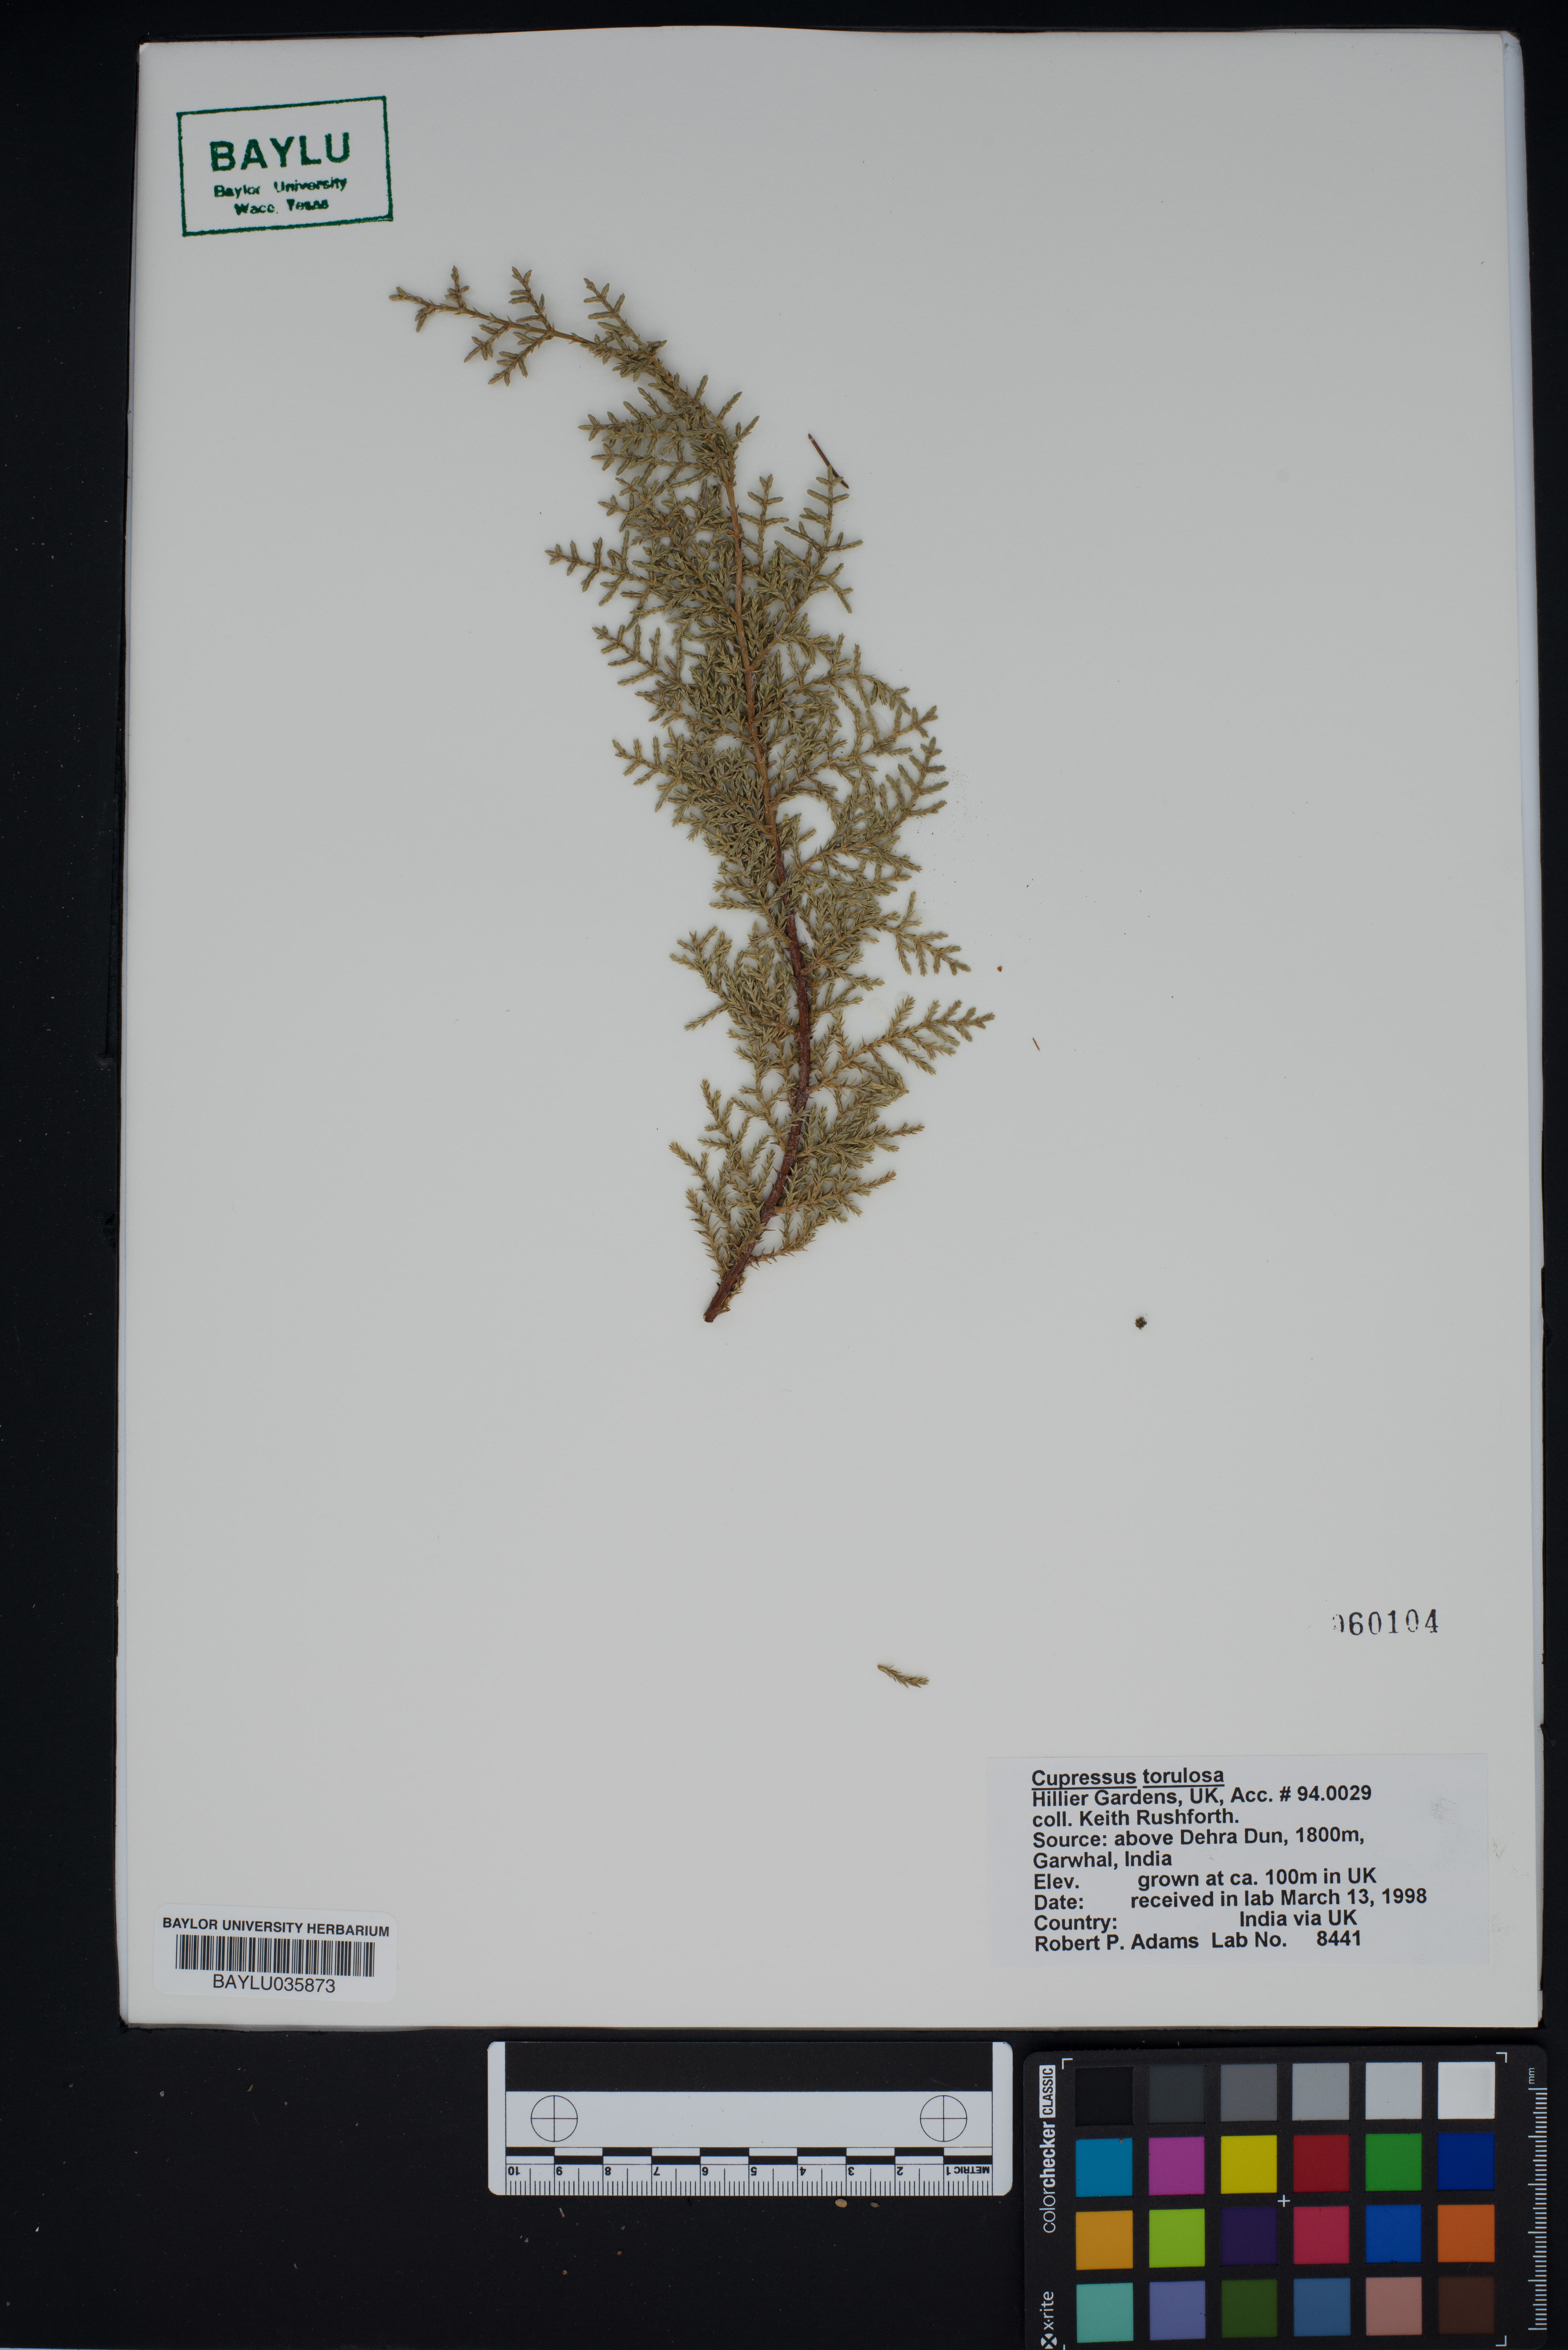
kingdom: Plantae
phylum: Tracheophyta
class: Pinopsida
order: Pinales
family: Cupressaceae
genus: Cupressus
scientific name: Cupressus torulosa
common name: Himalayan cypress
